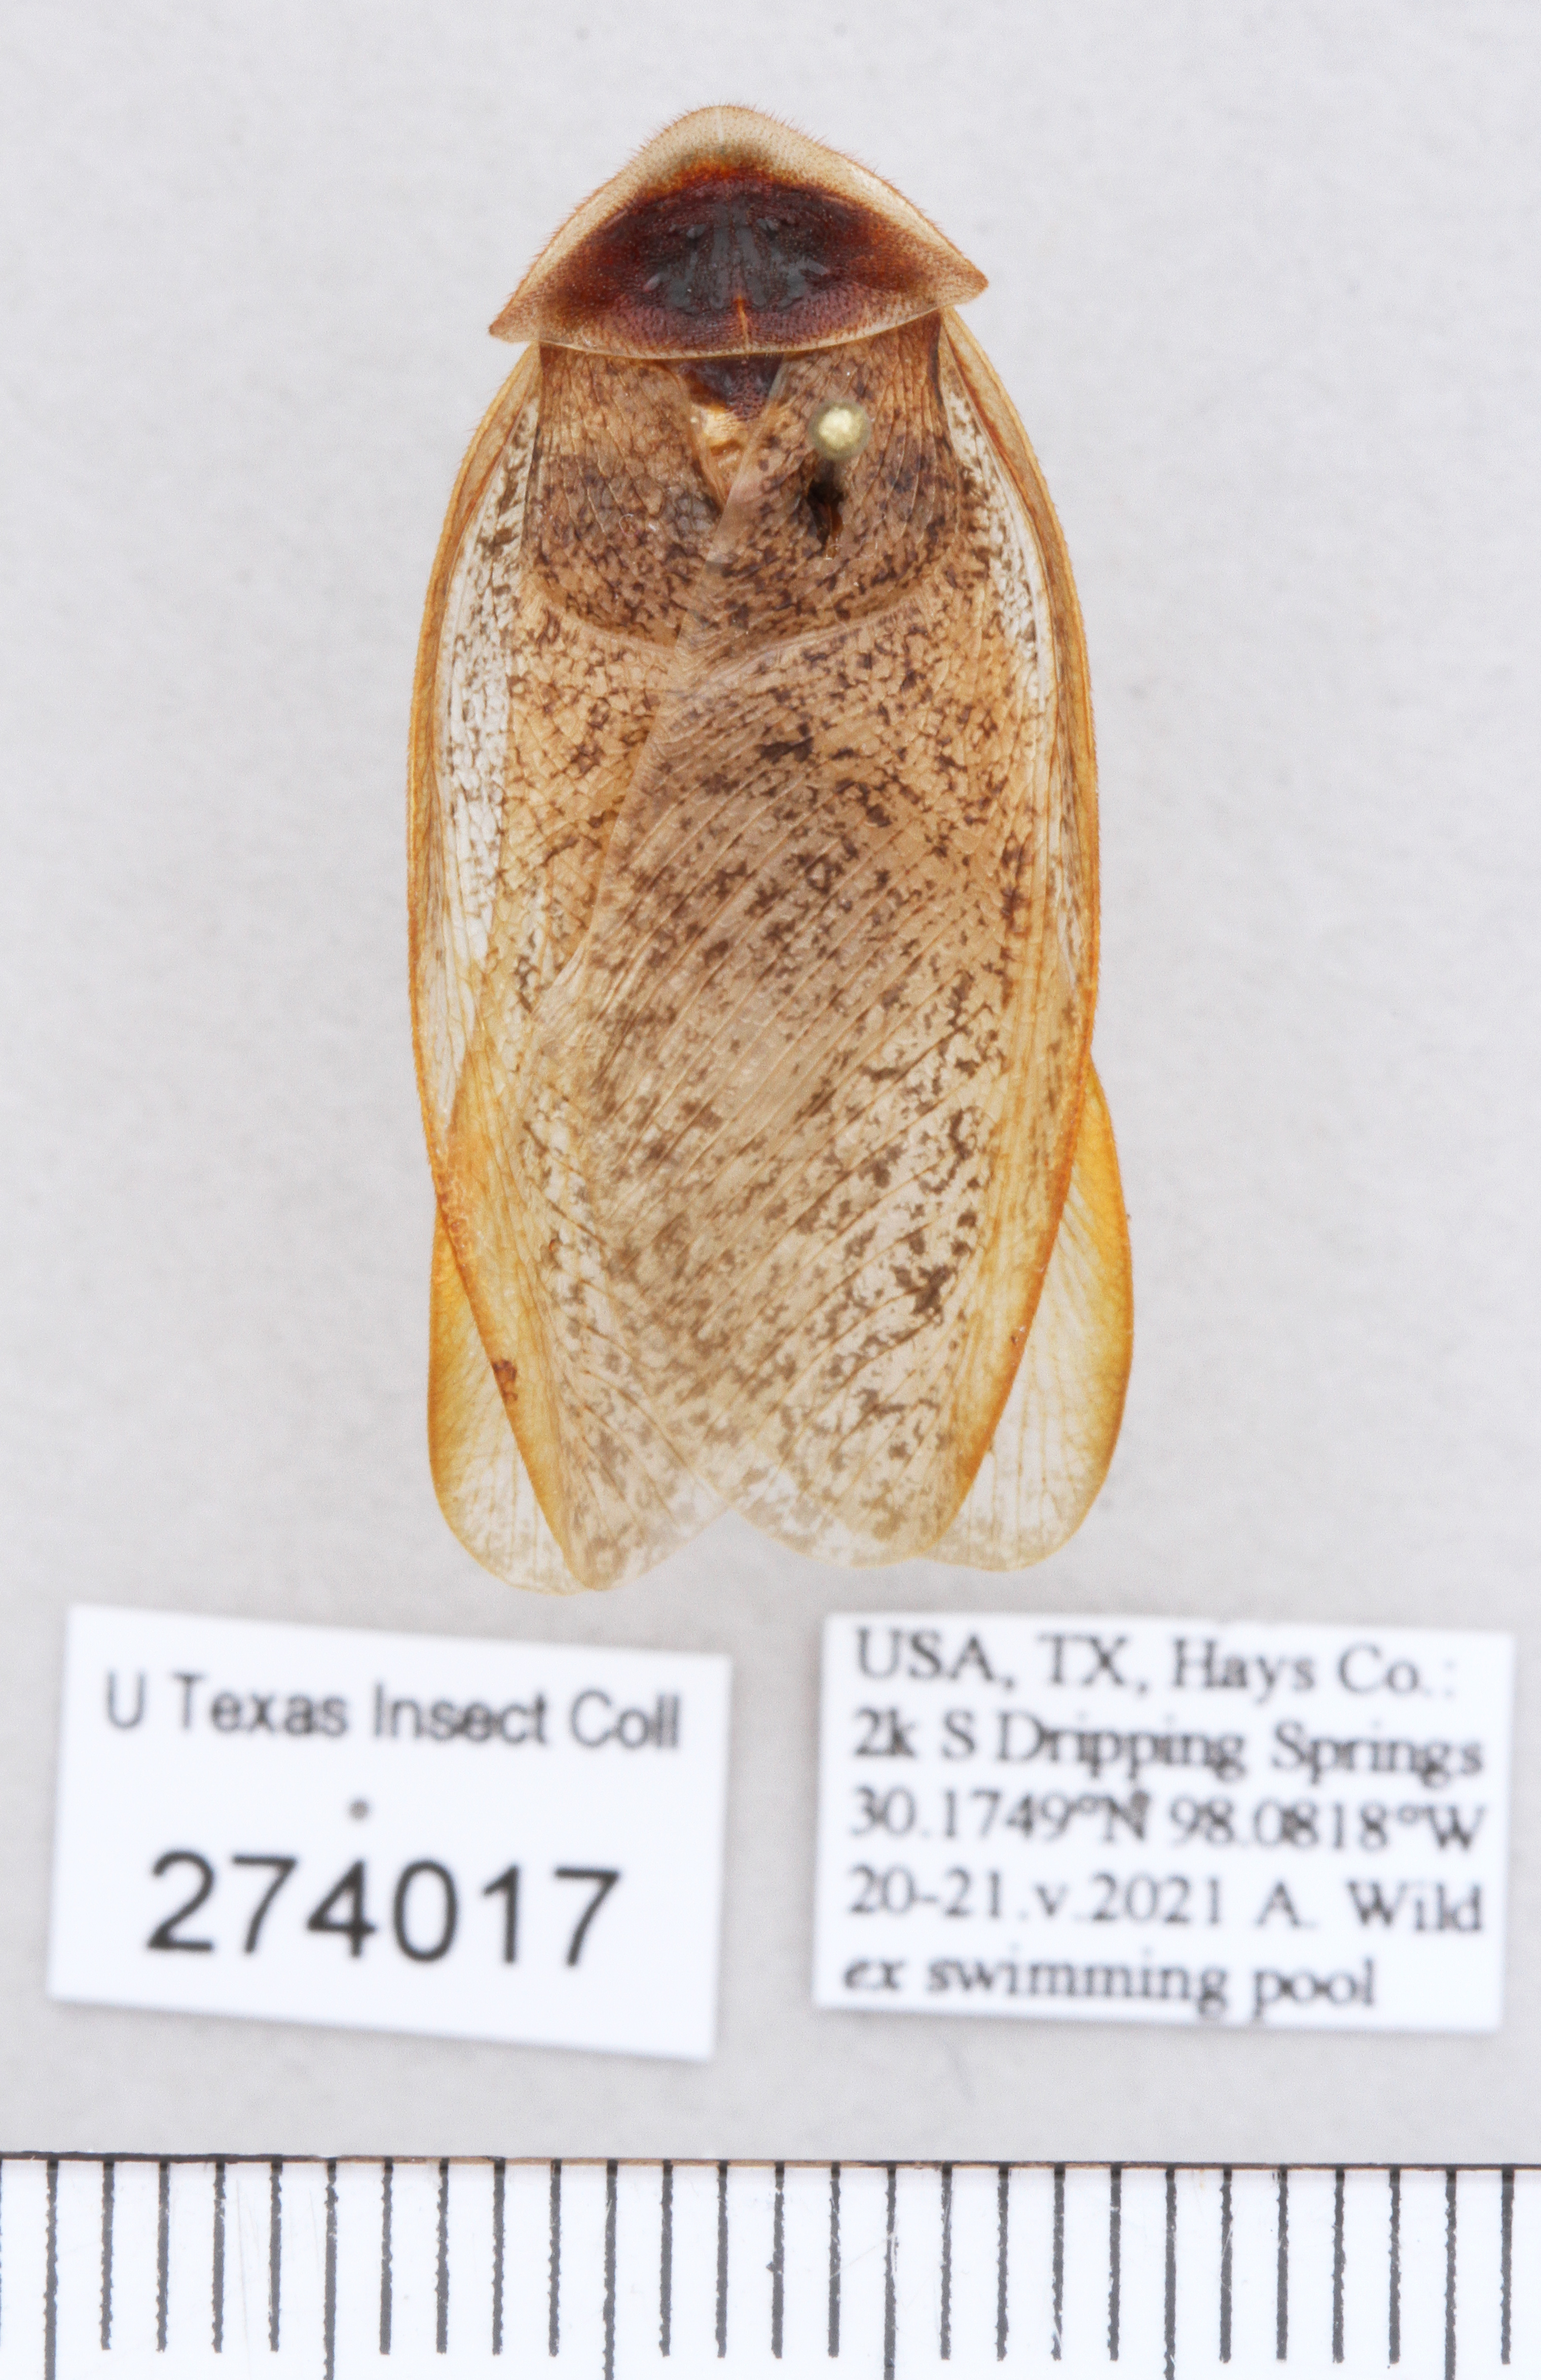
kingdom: Animalia
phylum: Arthropoda
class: Insecta
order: Blattodea
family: Corydiidae
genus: Arenivaga
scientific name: Arenivaga bolliana
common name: Boll's sand cockroach
